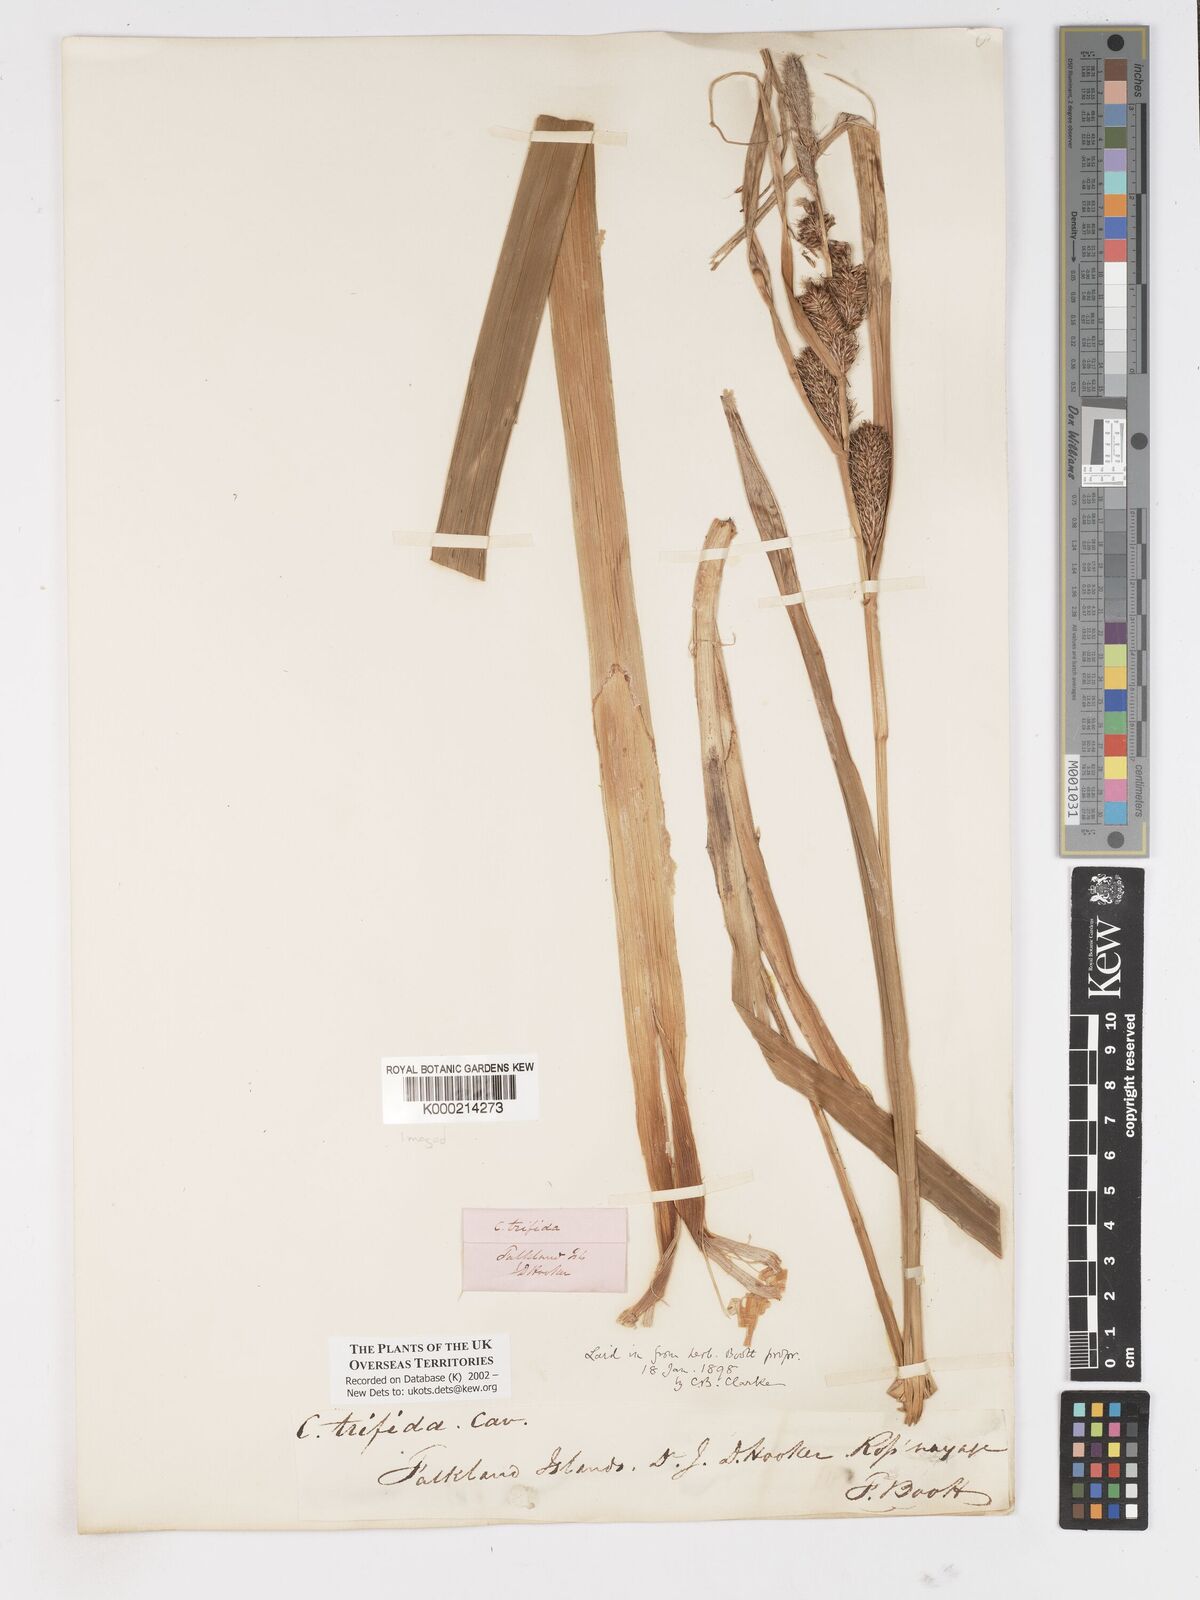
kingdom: Plantae
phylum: Tracheophyta
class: Liliopsida
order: Poales
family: Cyperaceae
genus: Carex
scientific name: Carex trifida
